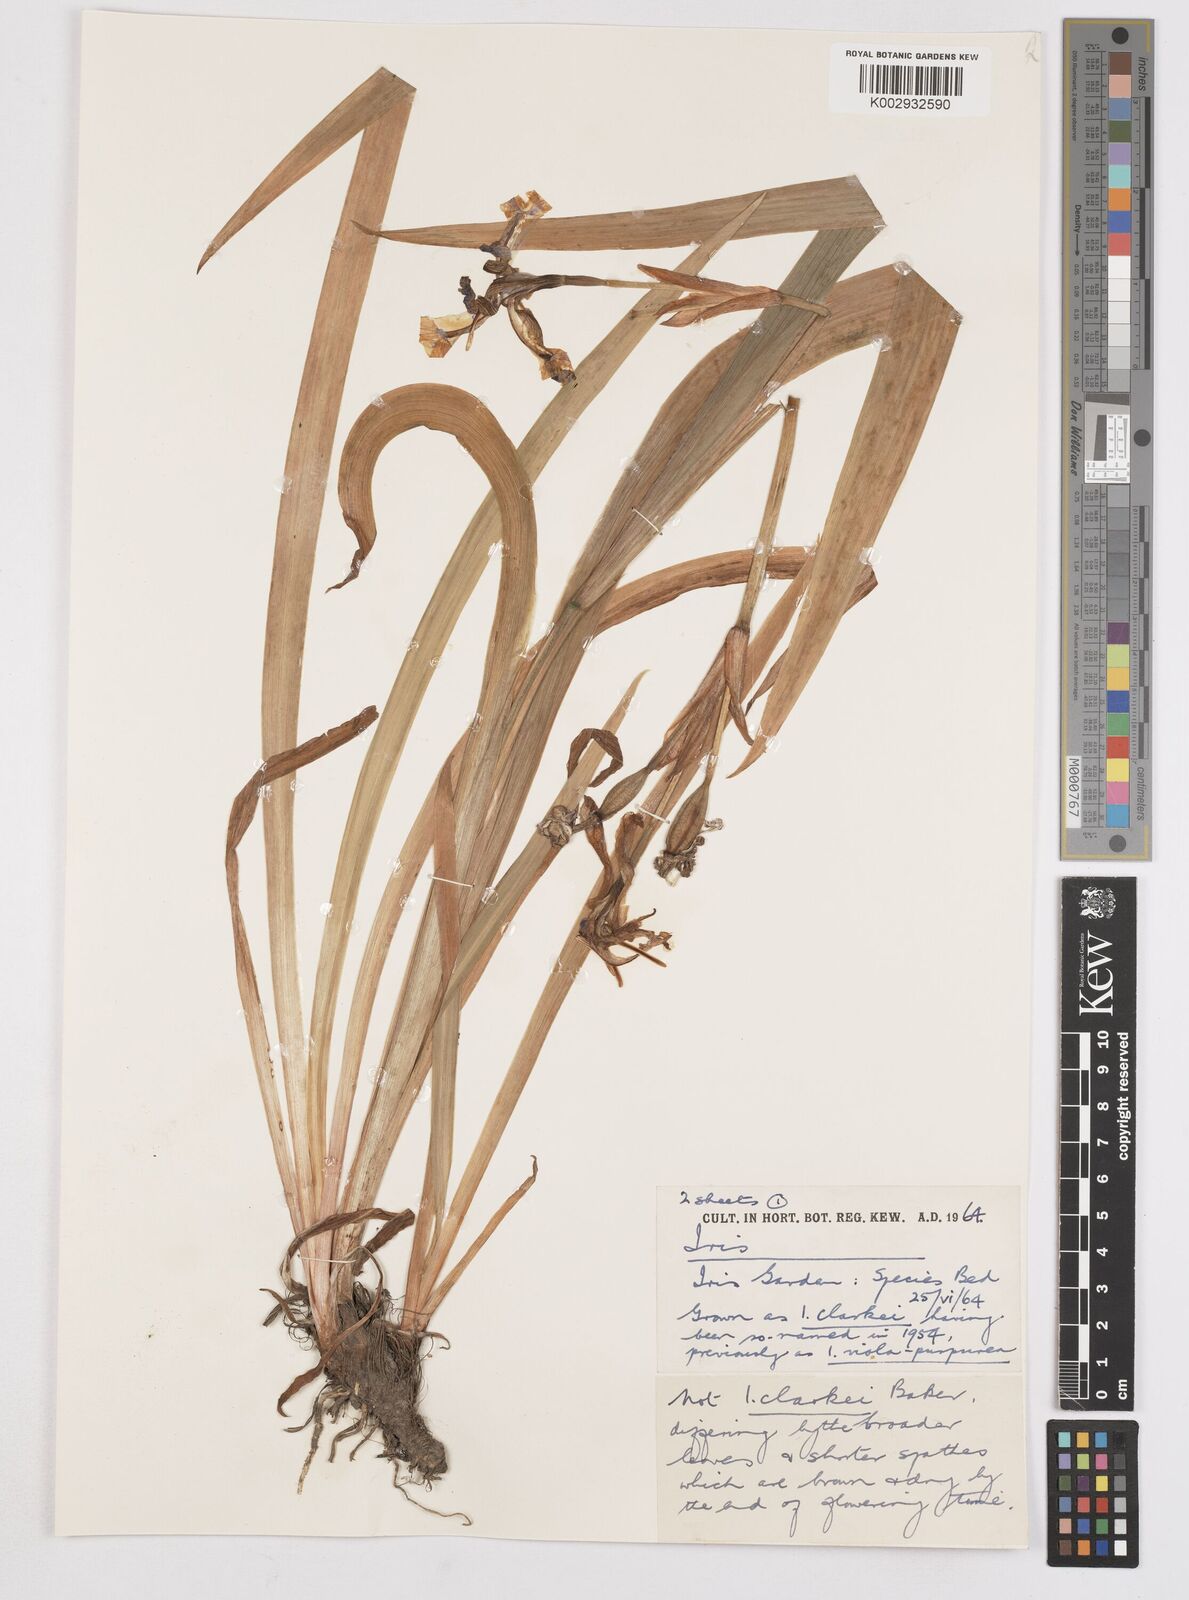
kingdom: Plantae
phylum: Tracheophyta
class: Liliopsida
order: Asparagales
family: Iridaceae
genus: Iris
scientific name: Iris clarkei
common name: Tibet iris
